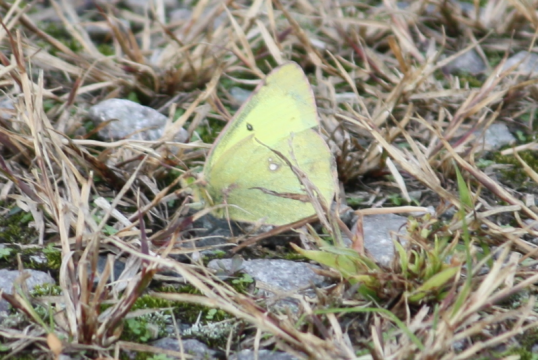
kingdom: Animalia
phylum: Arthropoda
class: Insecta
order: Lepidoptera
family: Pieridae
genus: Colias
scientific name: Colias philodice
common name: Clouded Sulphur
